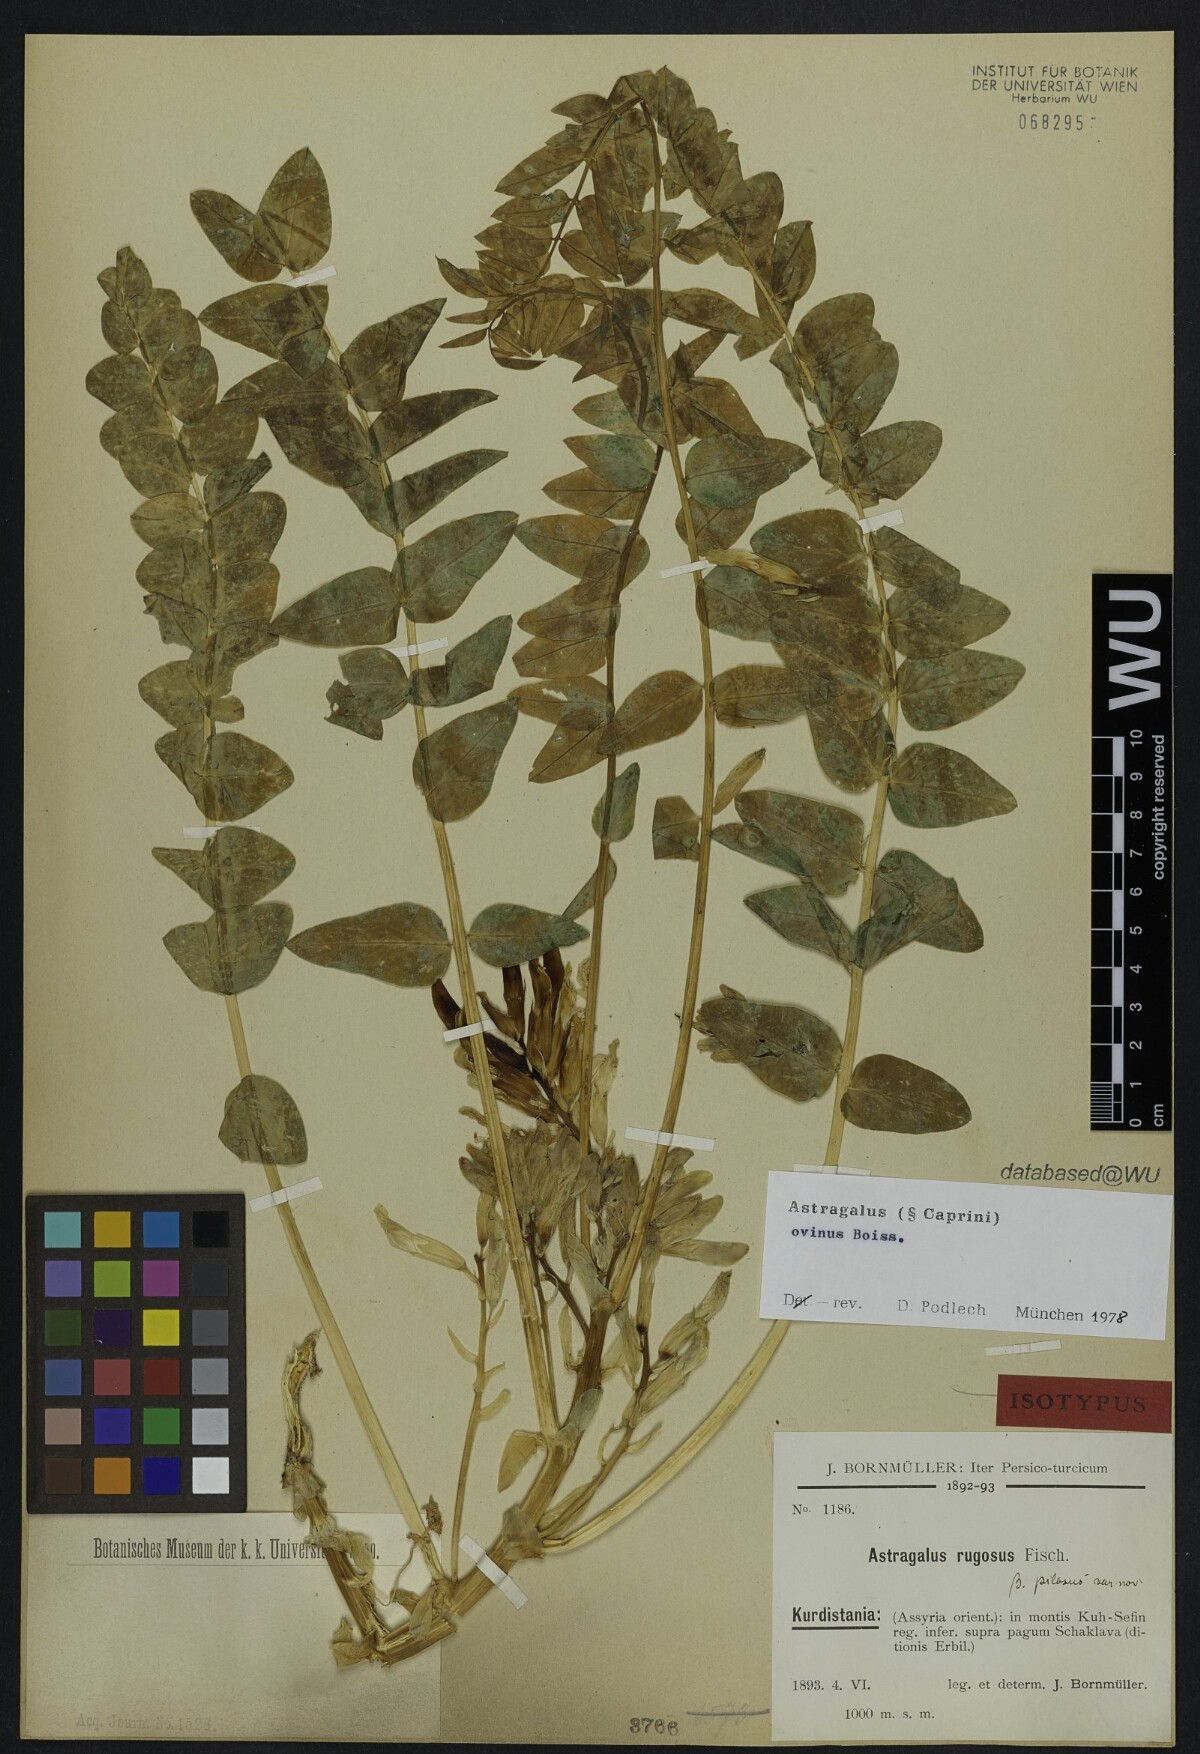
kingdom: Plantae
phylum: Tracheophyta
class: Magnoliopsida
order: Fabales
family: Fabaceae
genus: Astragalus
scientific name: Astragalus ovinus
